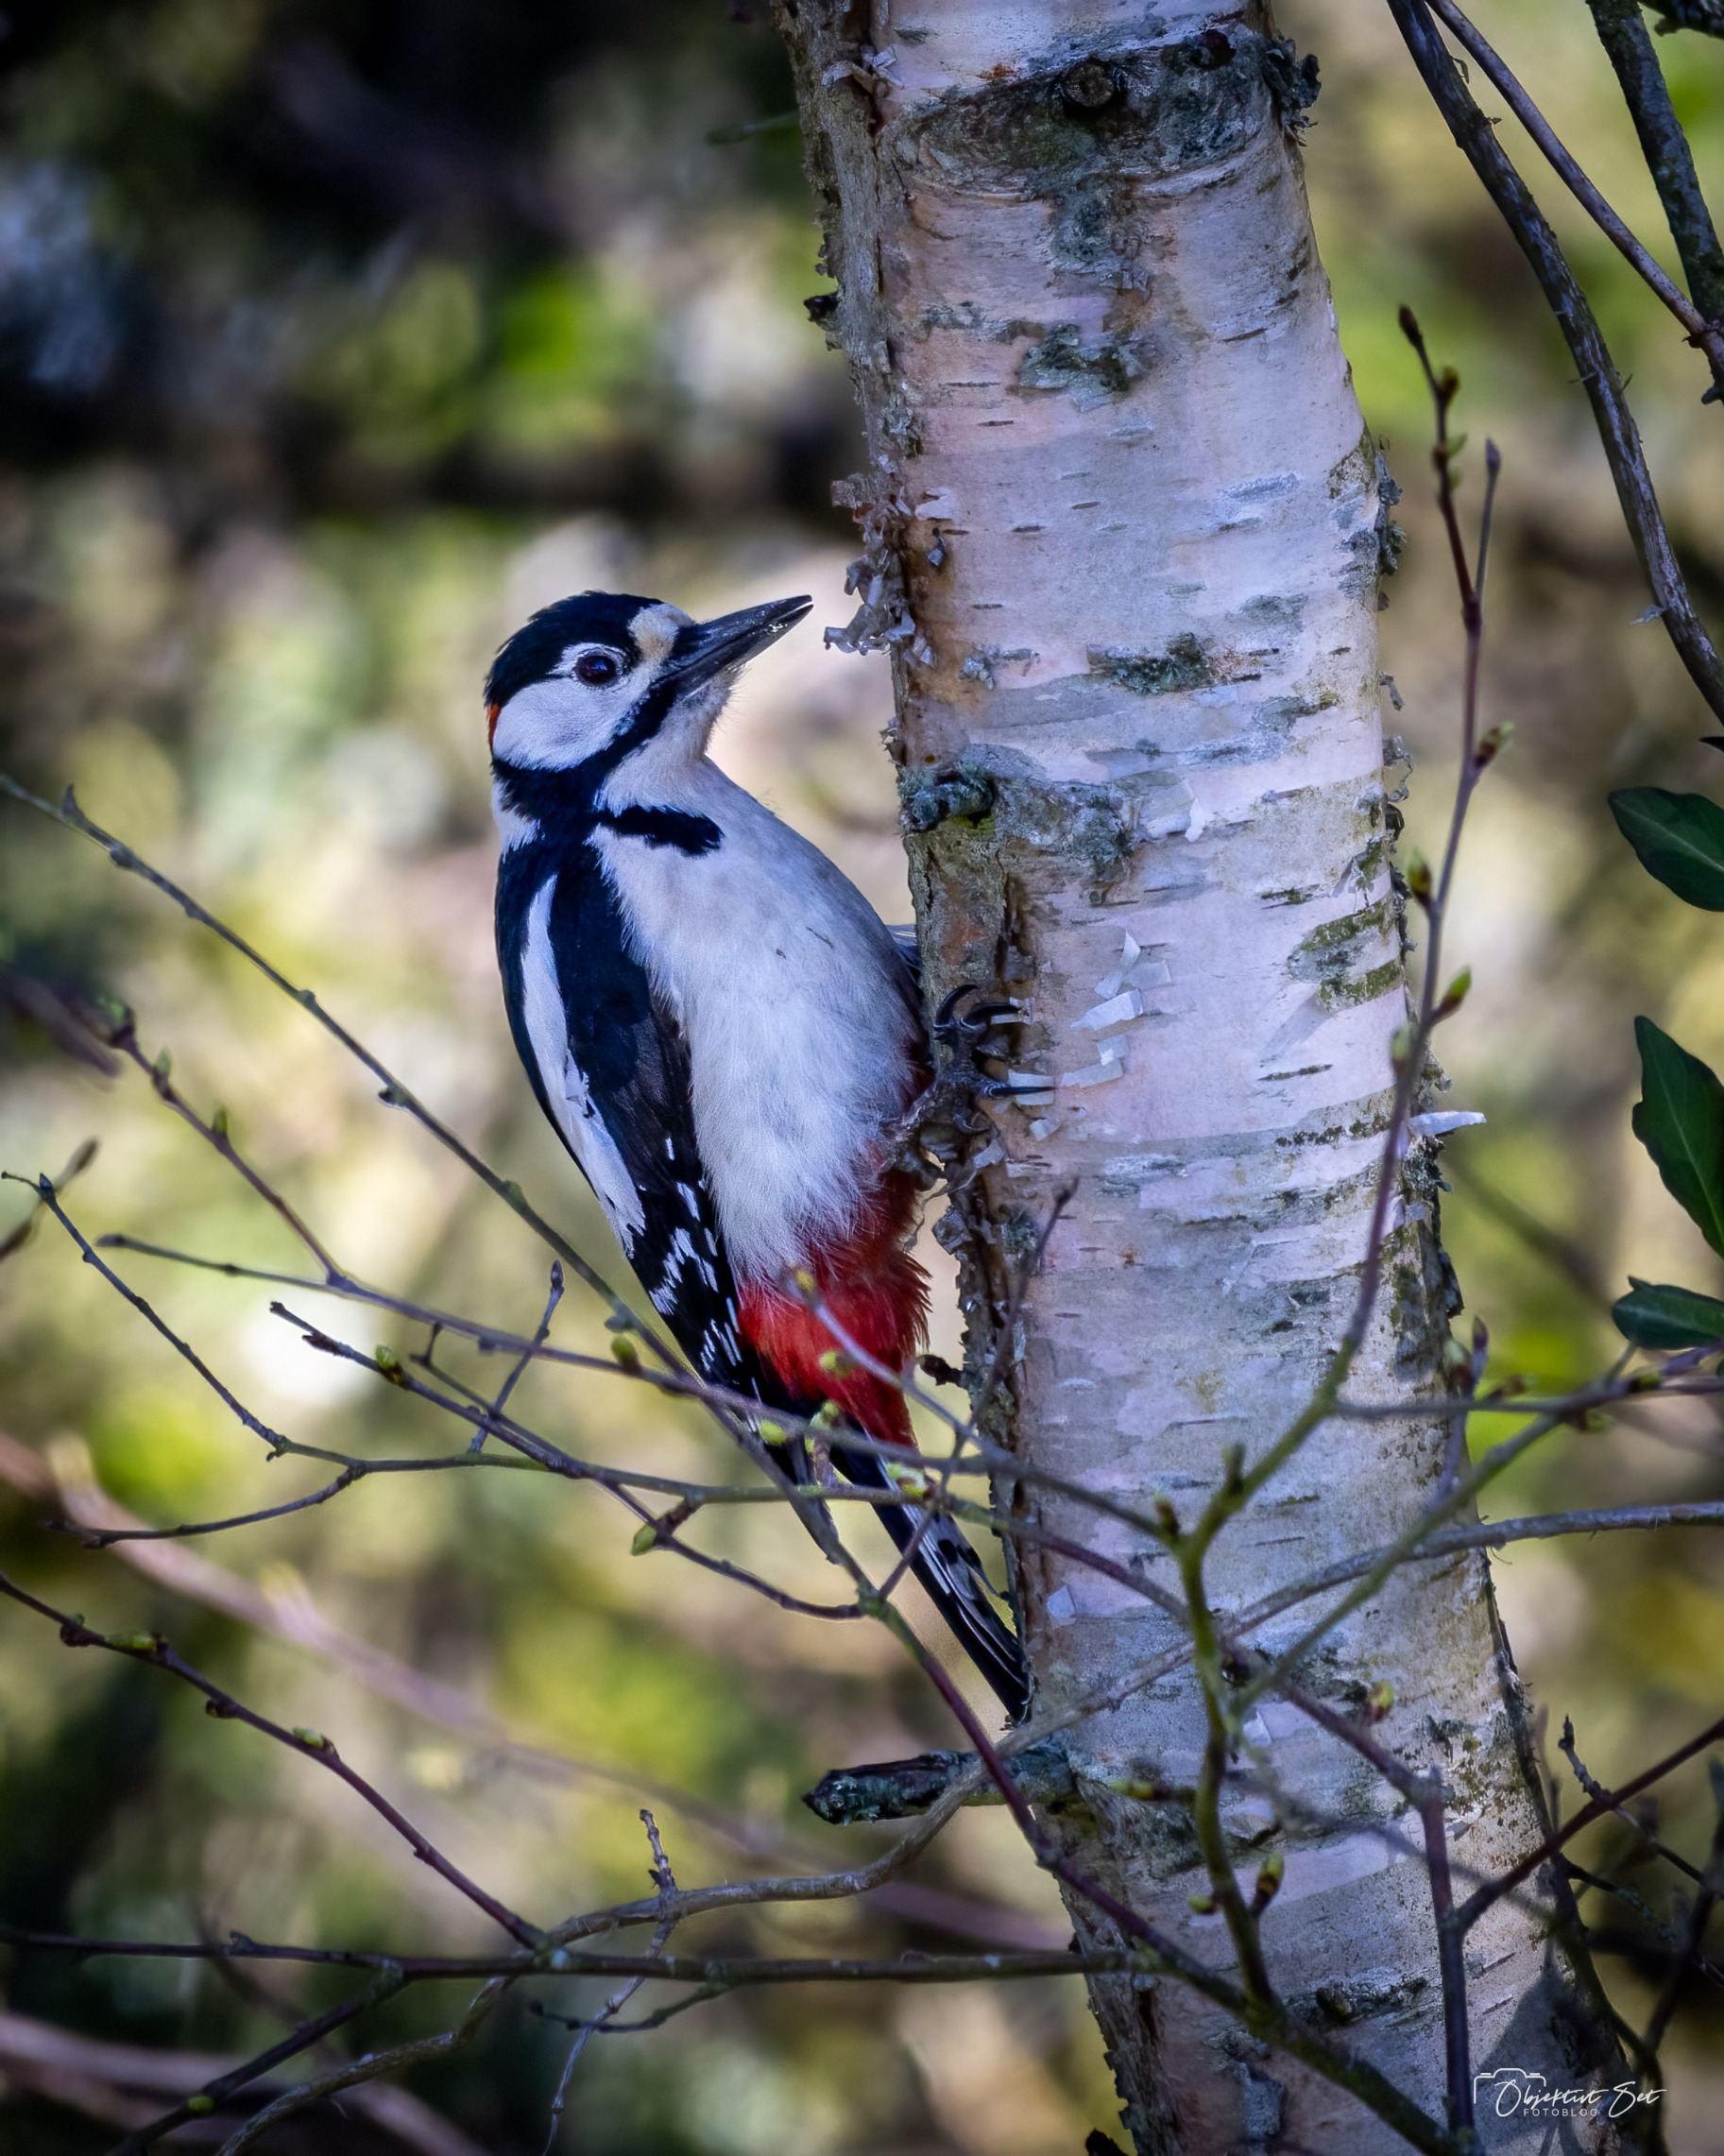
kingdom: Animalia
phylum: Chordata
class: Aves
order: Piciformes
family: Picidae
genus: Dendrocopos
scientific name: Dendrocopos major
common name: Stor flagspætte
